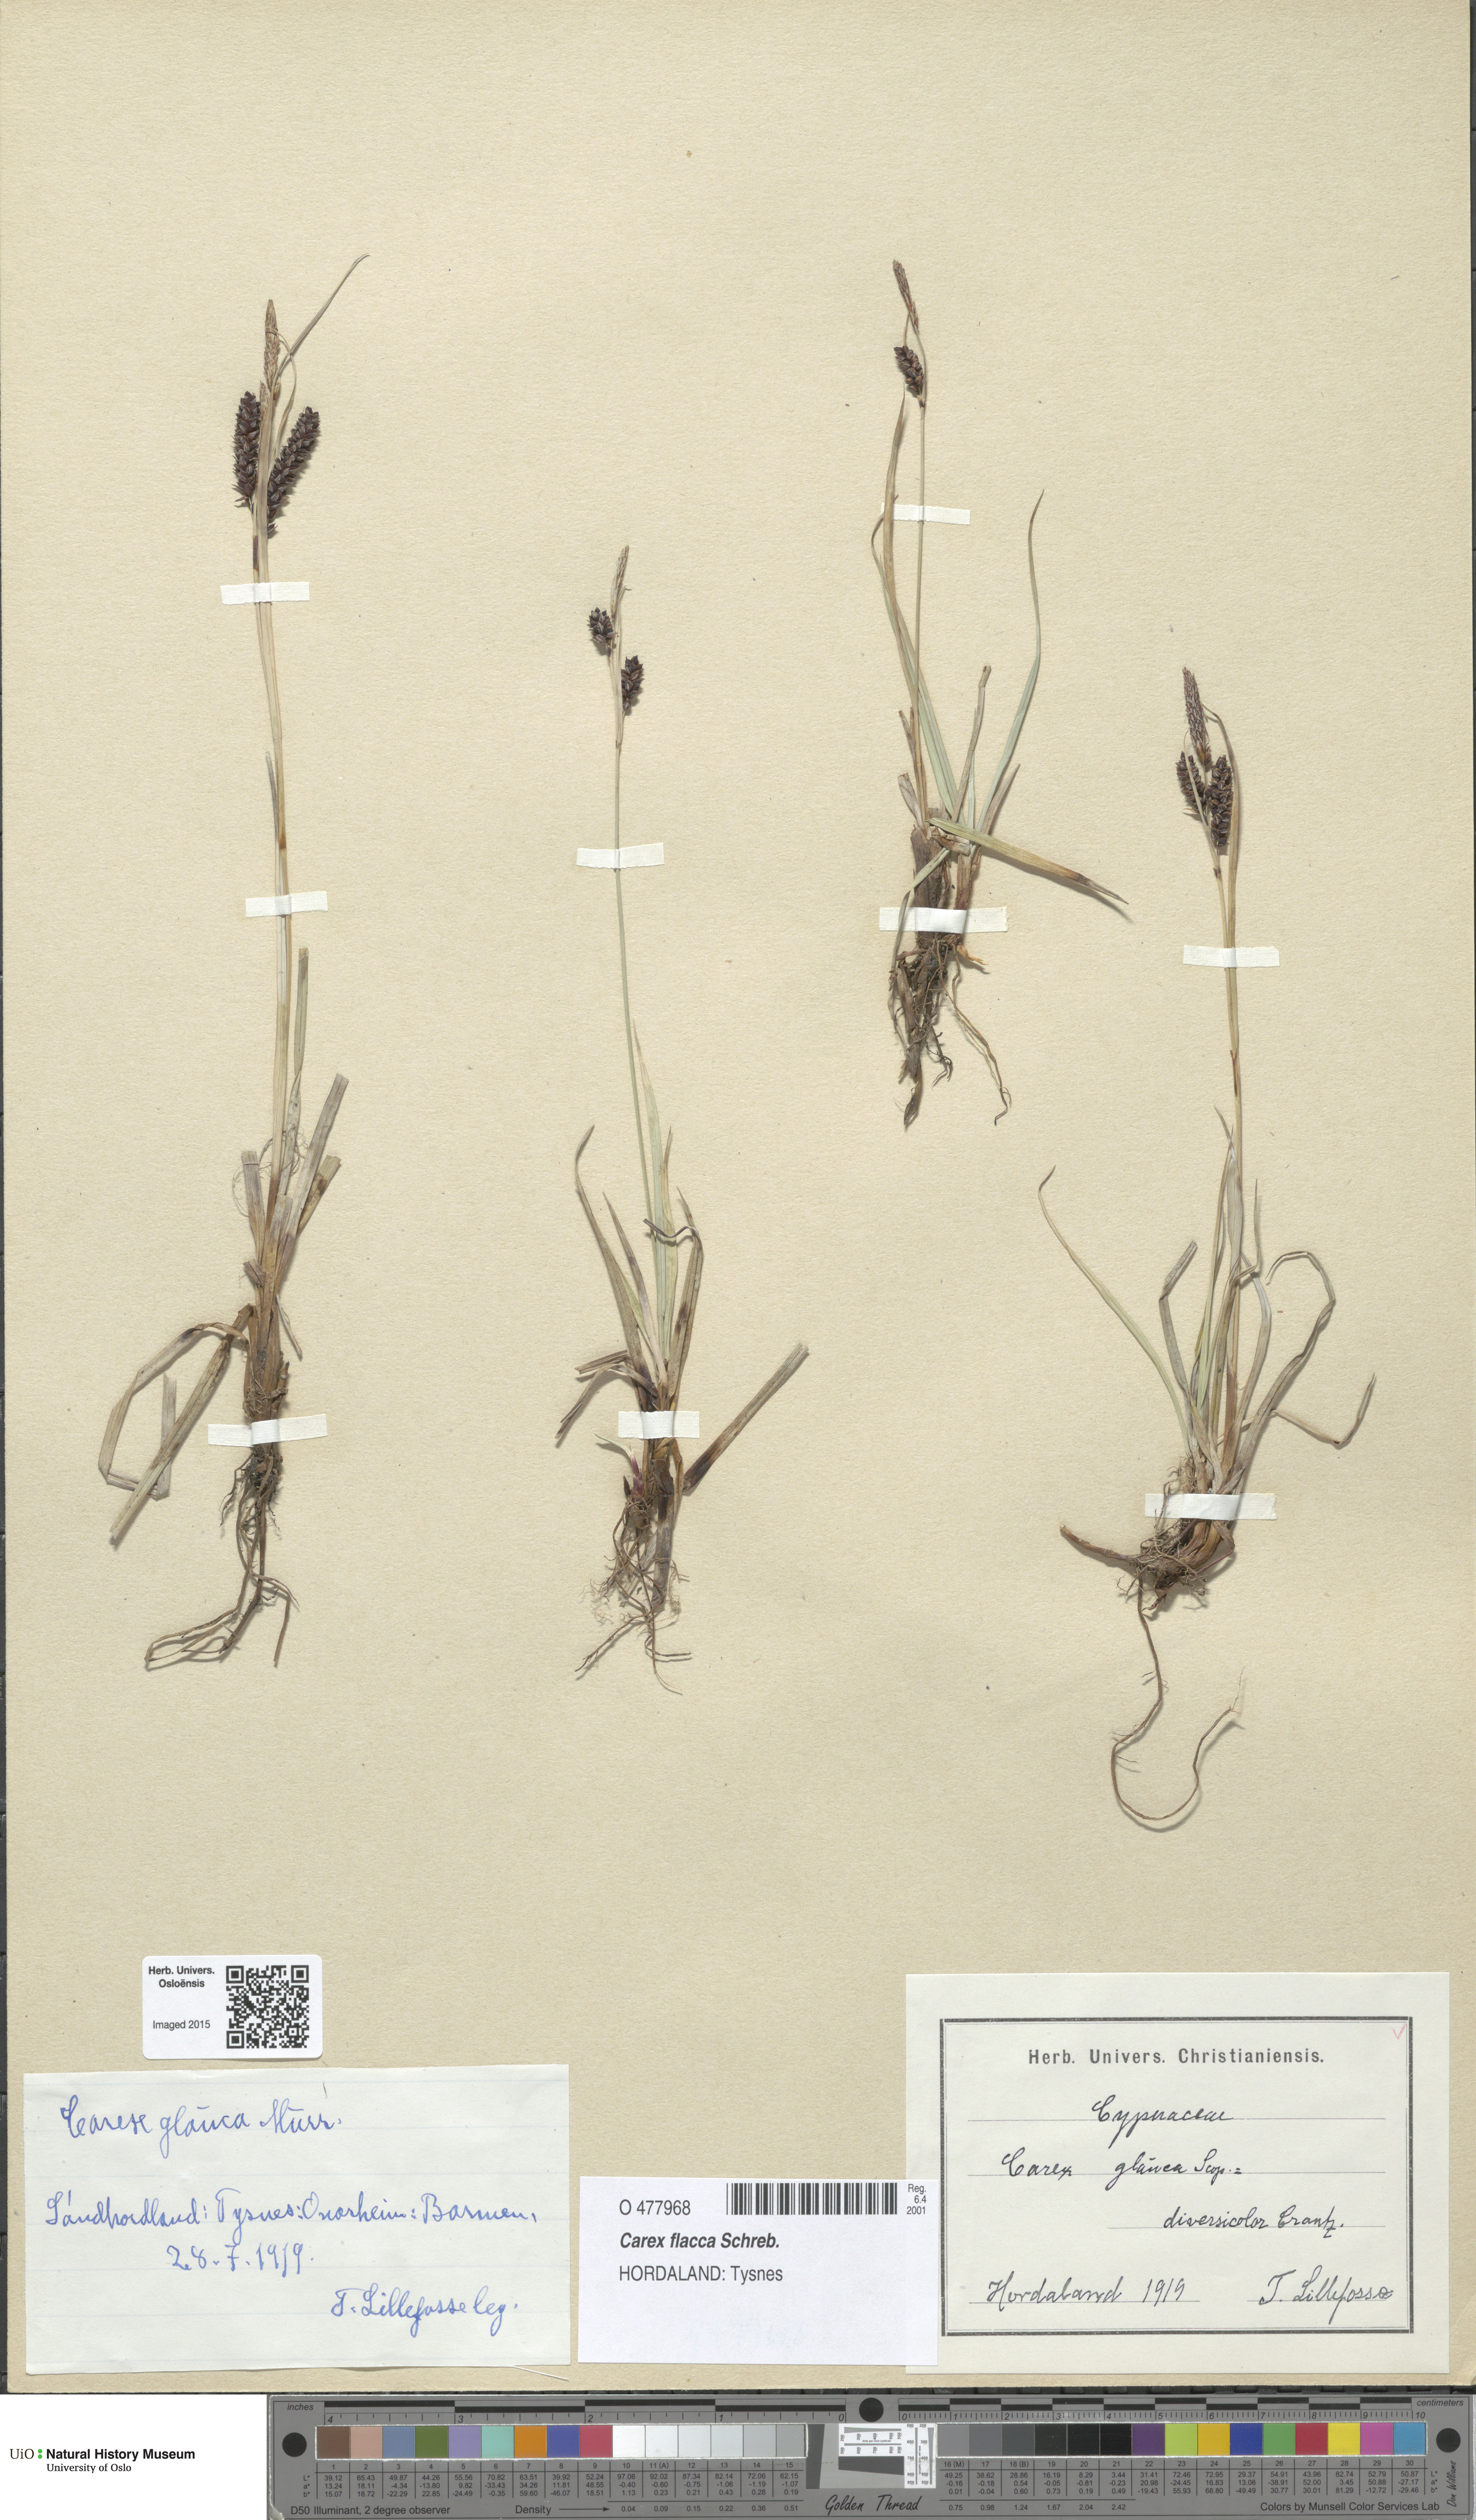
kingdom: Plantae
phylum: Tracheophyta
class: Liliopsida
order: Poales
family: Cyperaceae
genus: Carex
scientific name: Carex flacca
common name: Glaucous sedge
